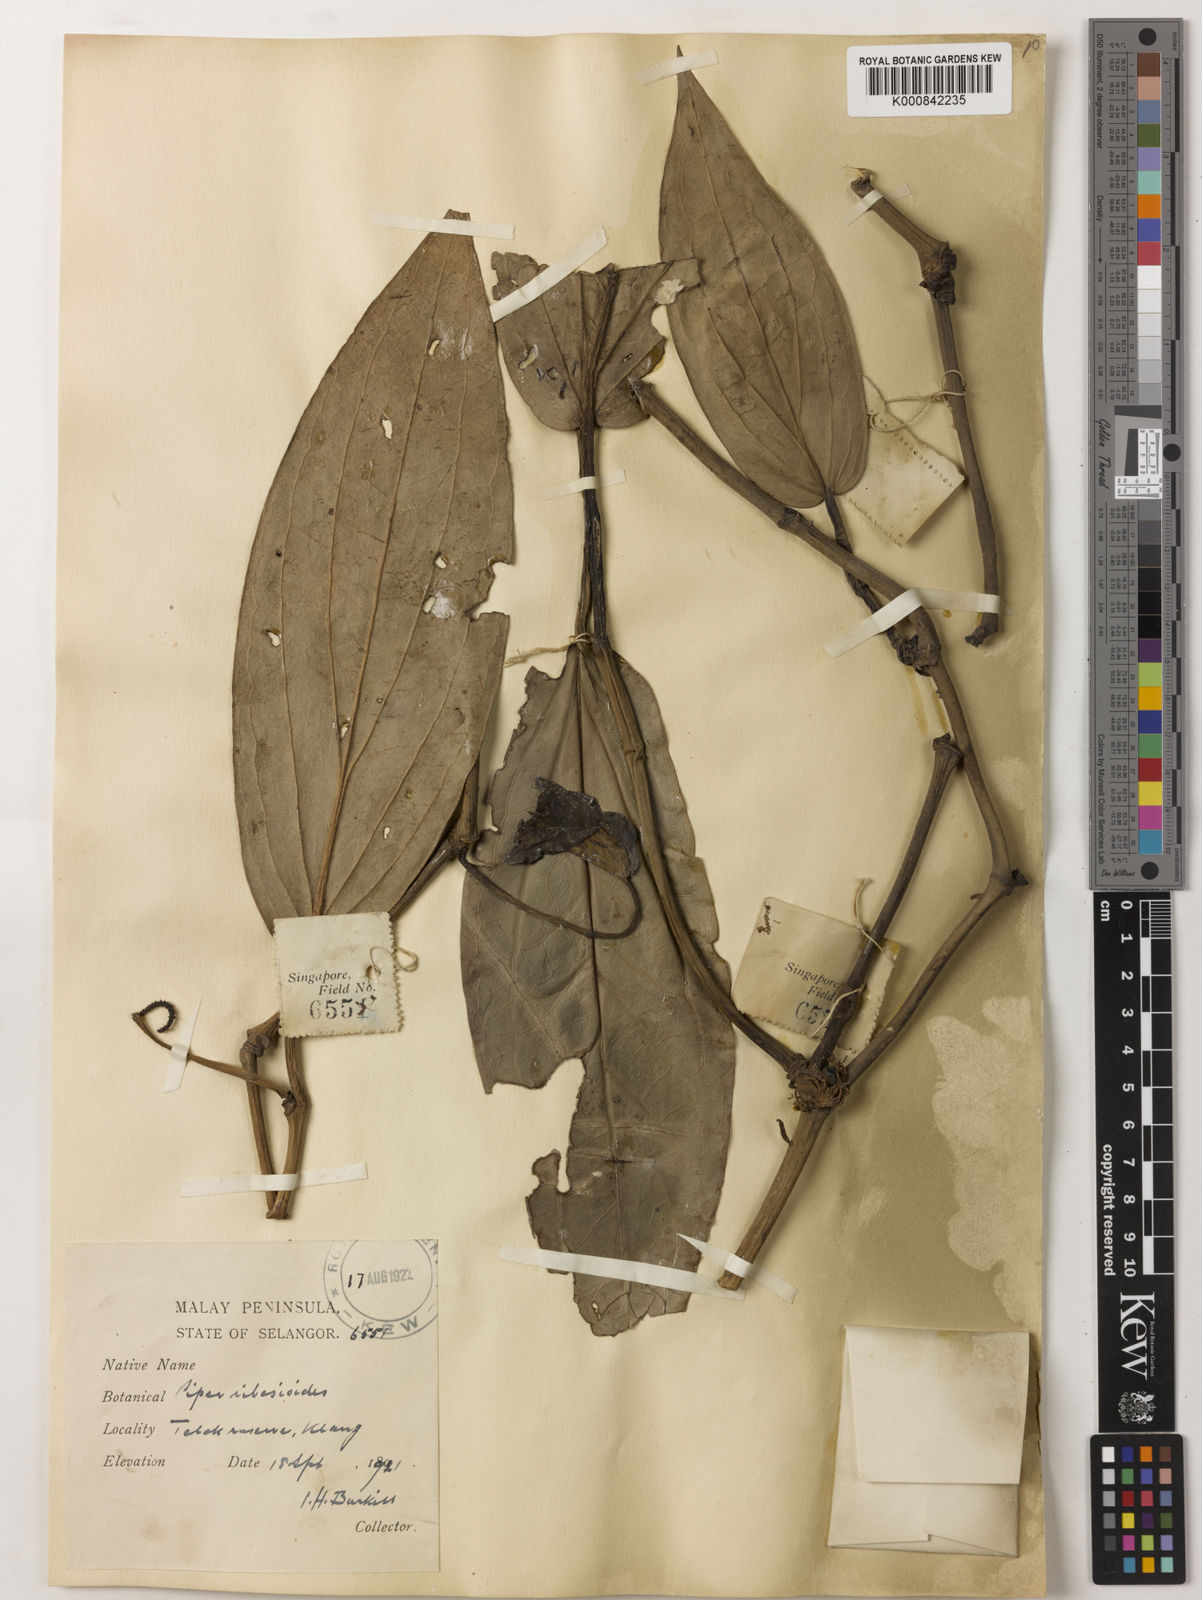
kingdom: Plantae
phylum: Tracheophyta
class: Magnoliopsida
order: Piperales
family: Piperaceae
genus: Piper
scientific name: Piper ribesioides
